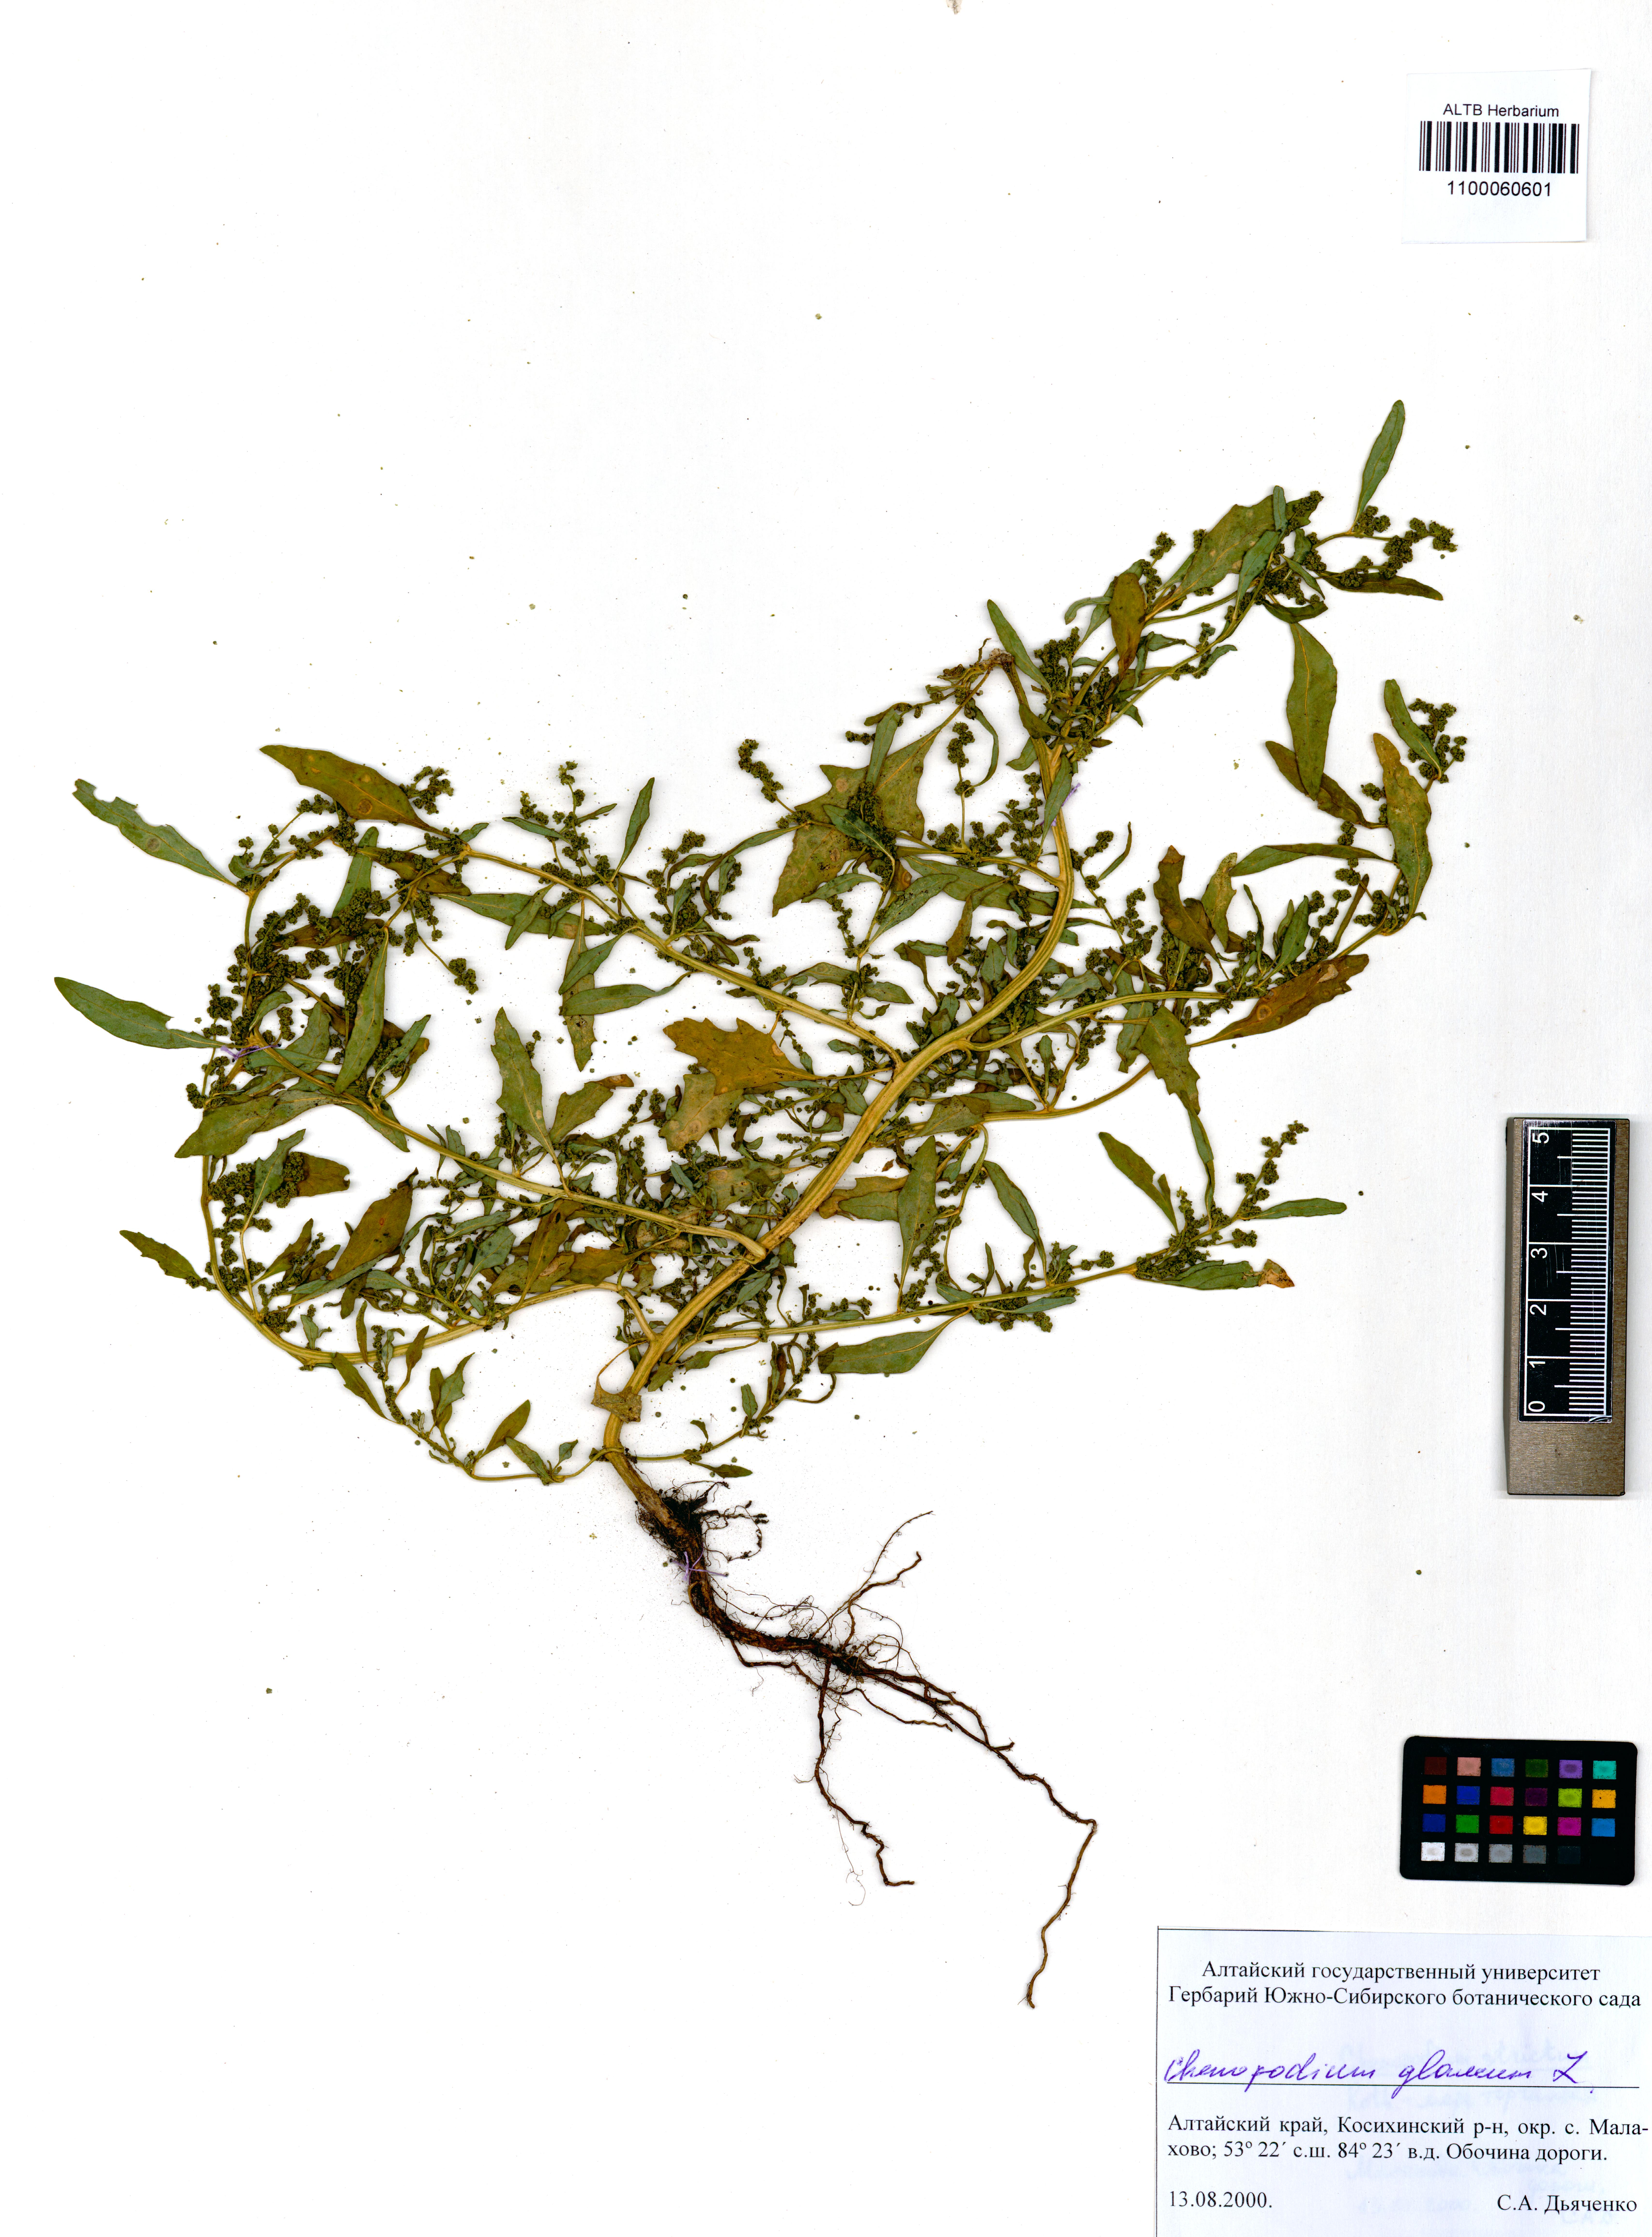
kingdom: Plantae
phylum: Tracheophyta
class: Magnoliopsida
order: Caryophyllales
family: Amaranthaceae
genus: Oxybasis
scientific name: Oxybasis glauca
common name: Glaucous goosefoot
